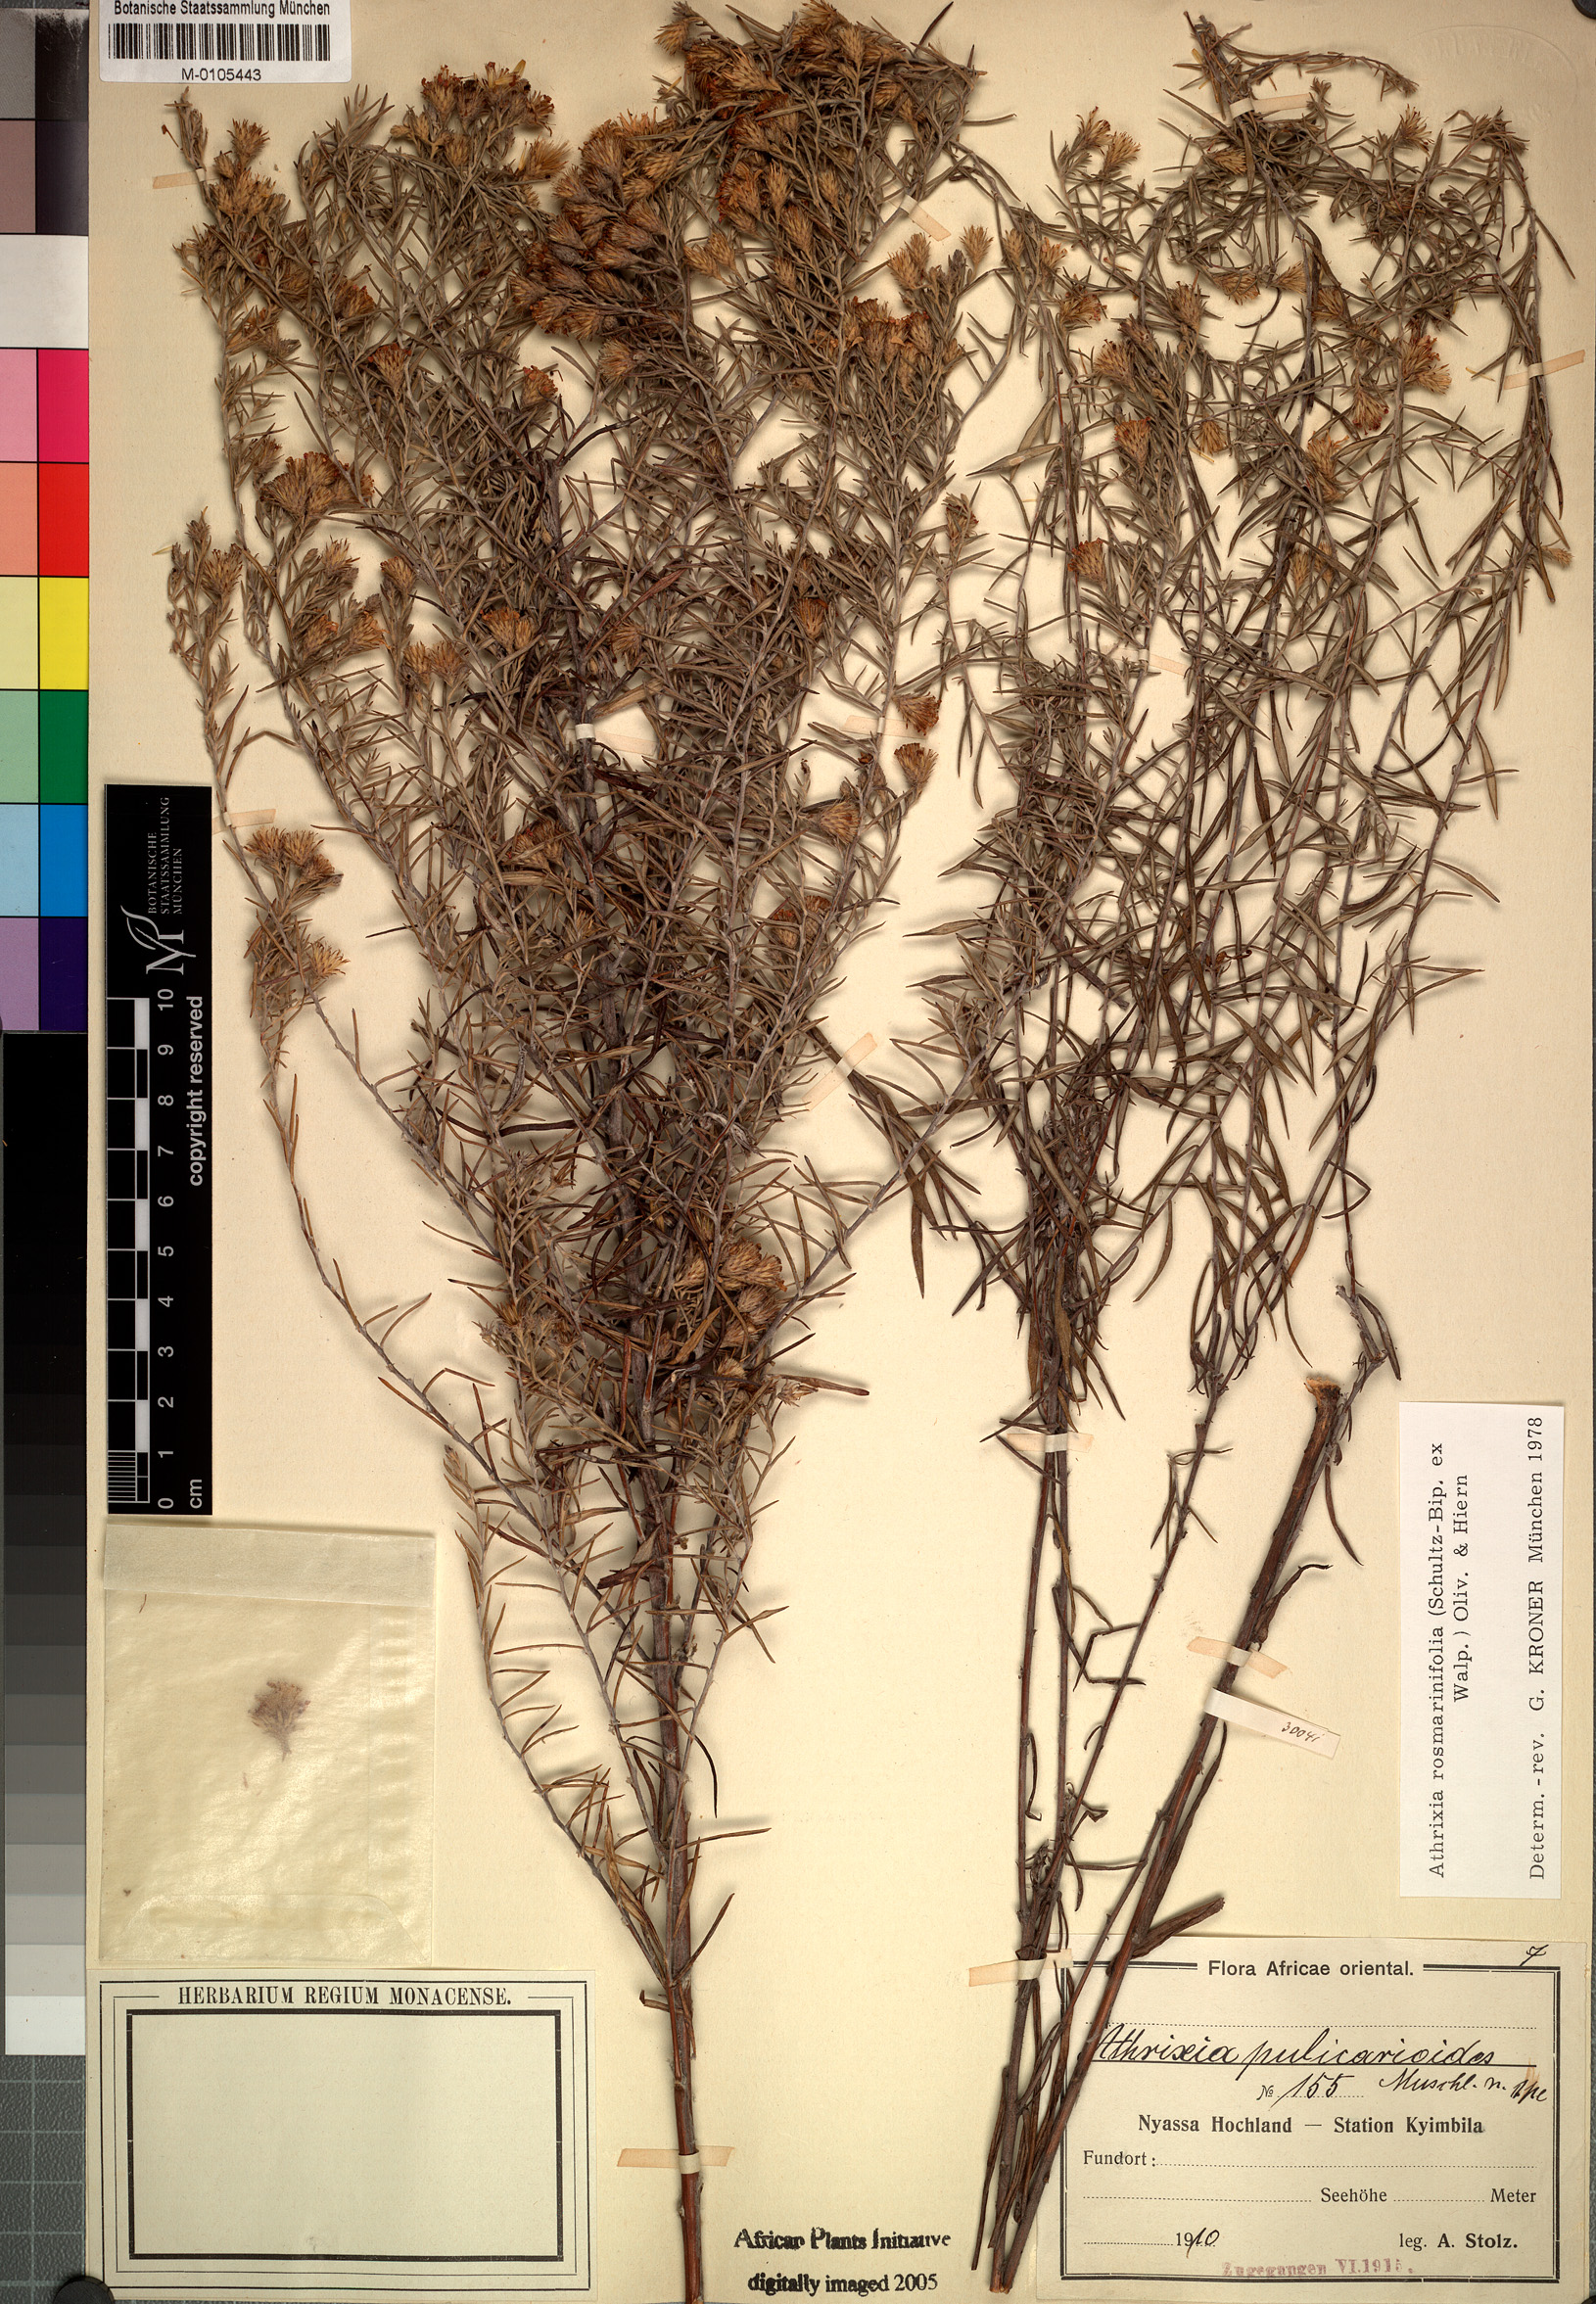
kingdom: Plantae
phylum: Tracheophyta
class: Magnoliopsida
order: Asterales
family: Asteraceae
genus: Athrixia
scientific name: Athrixia rosmarinifolia
